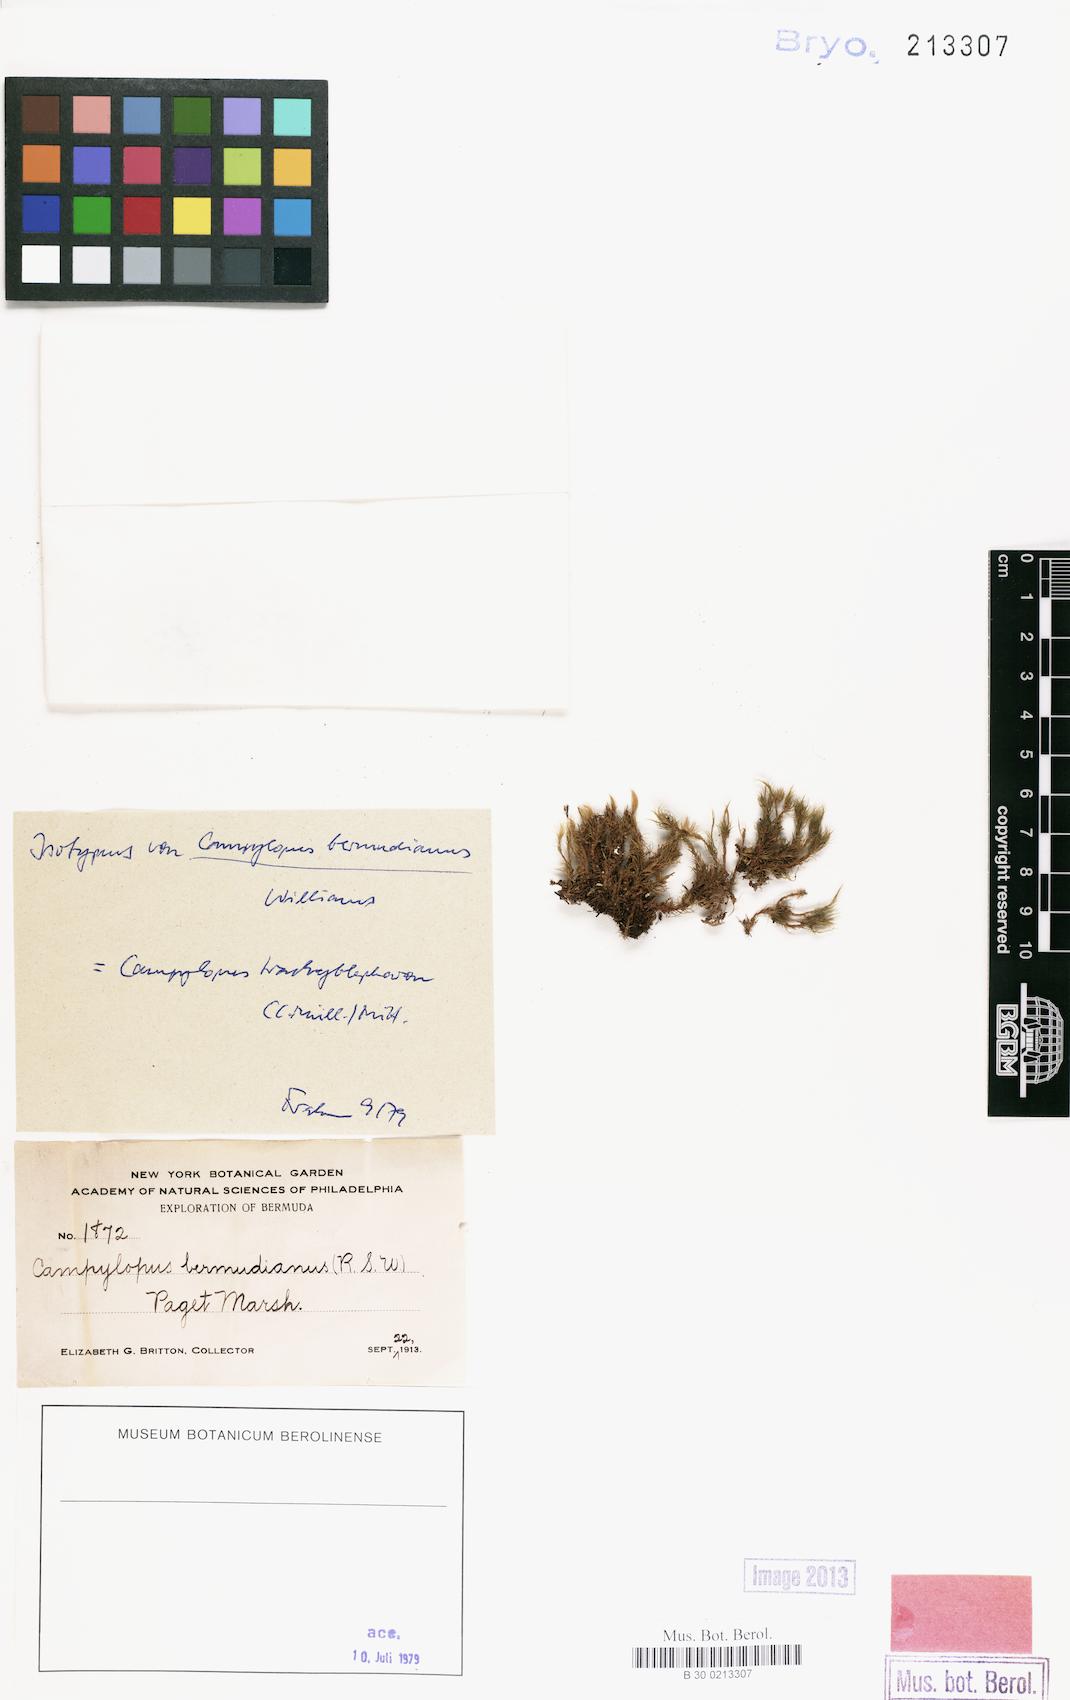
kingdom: Plantae
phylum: Bryophyta
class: Bryopsida
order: Dicranales
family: Leucobryaceae
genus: Campylopus
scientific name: Campylopus trachyblepharon
